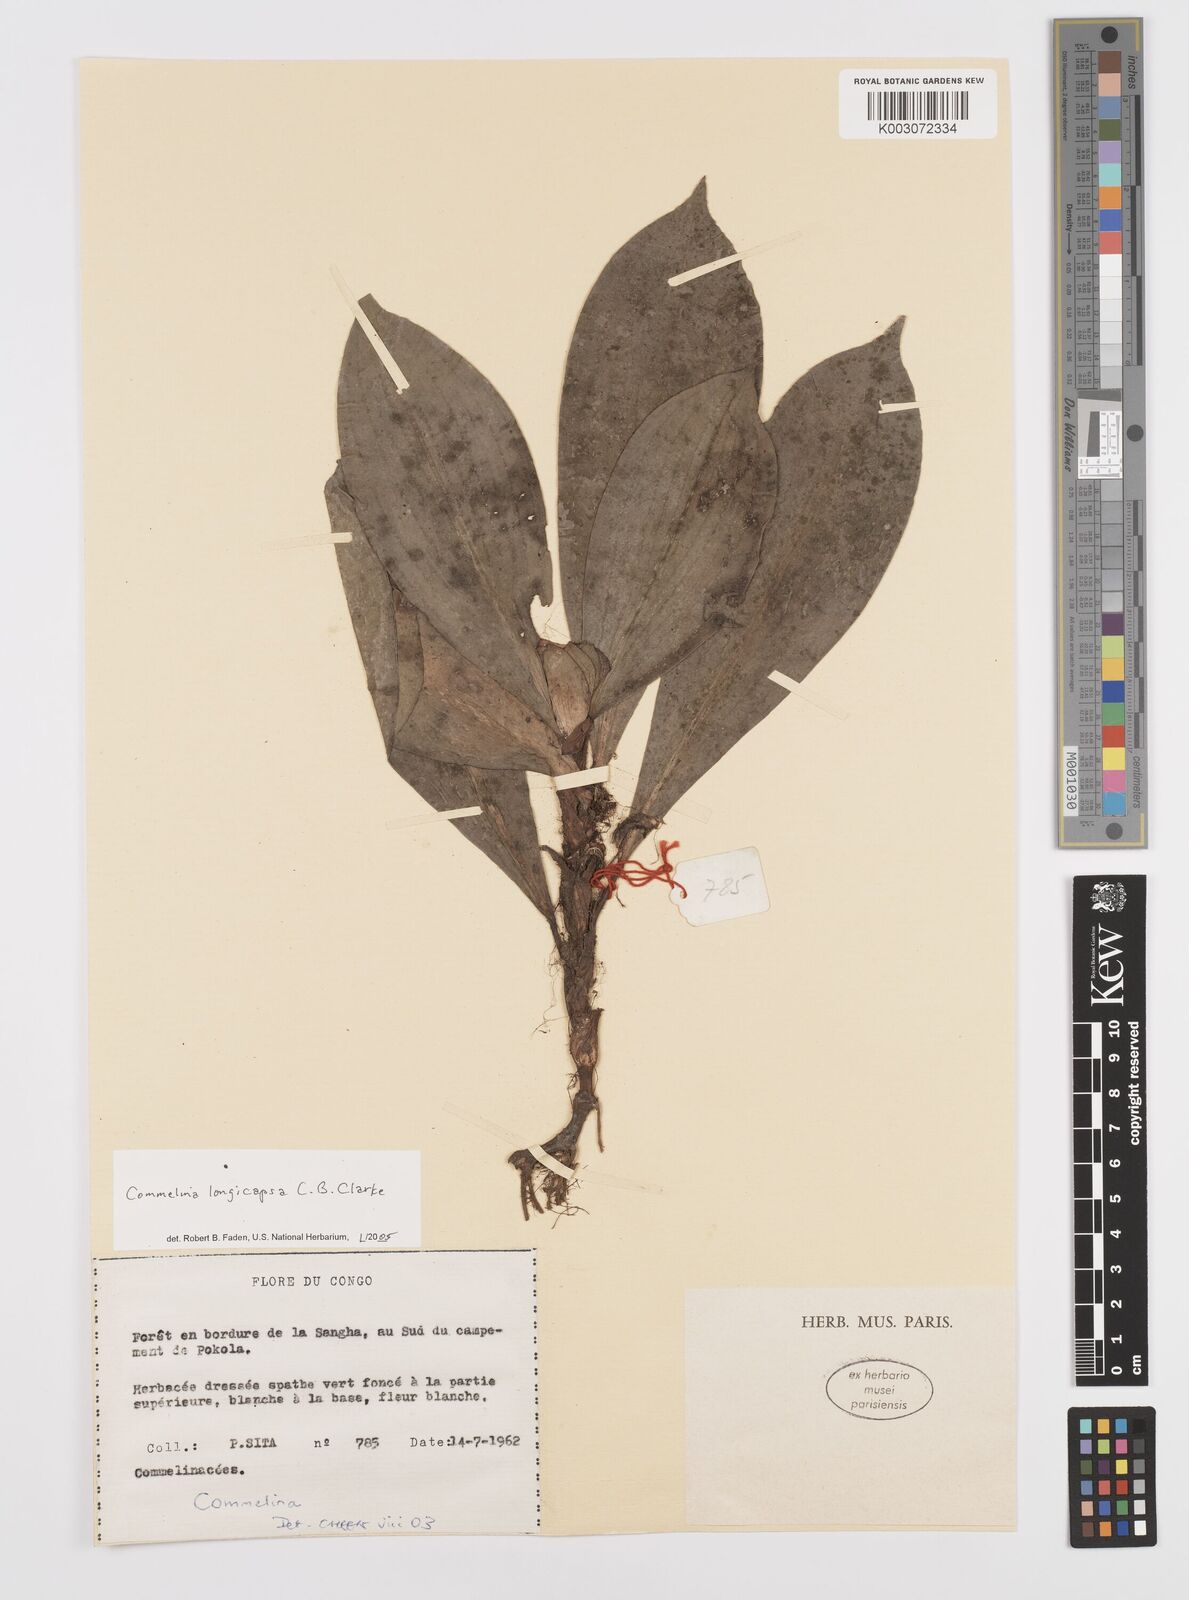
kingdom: Plantae
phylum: Tracheophyta
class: Liliopsida
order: Commelinales
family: Commelinaceae
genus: Commelina
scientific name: Commelina longicapsa
